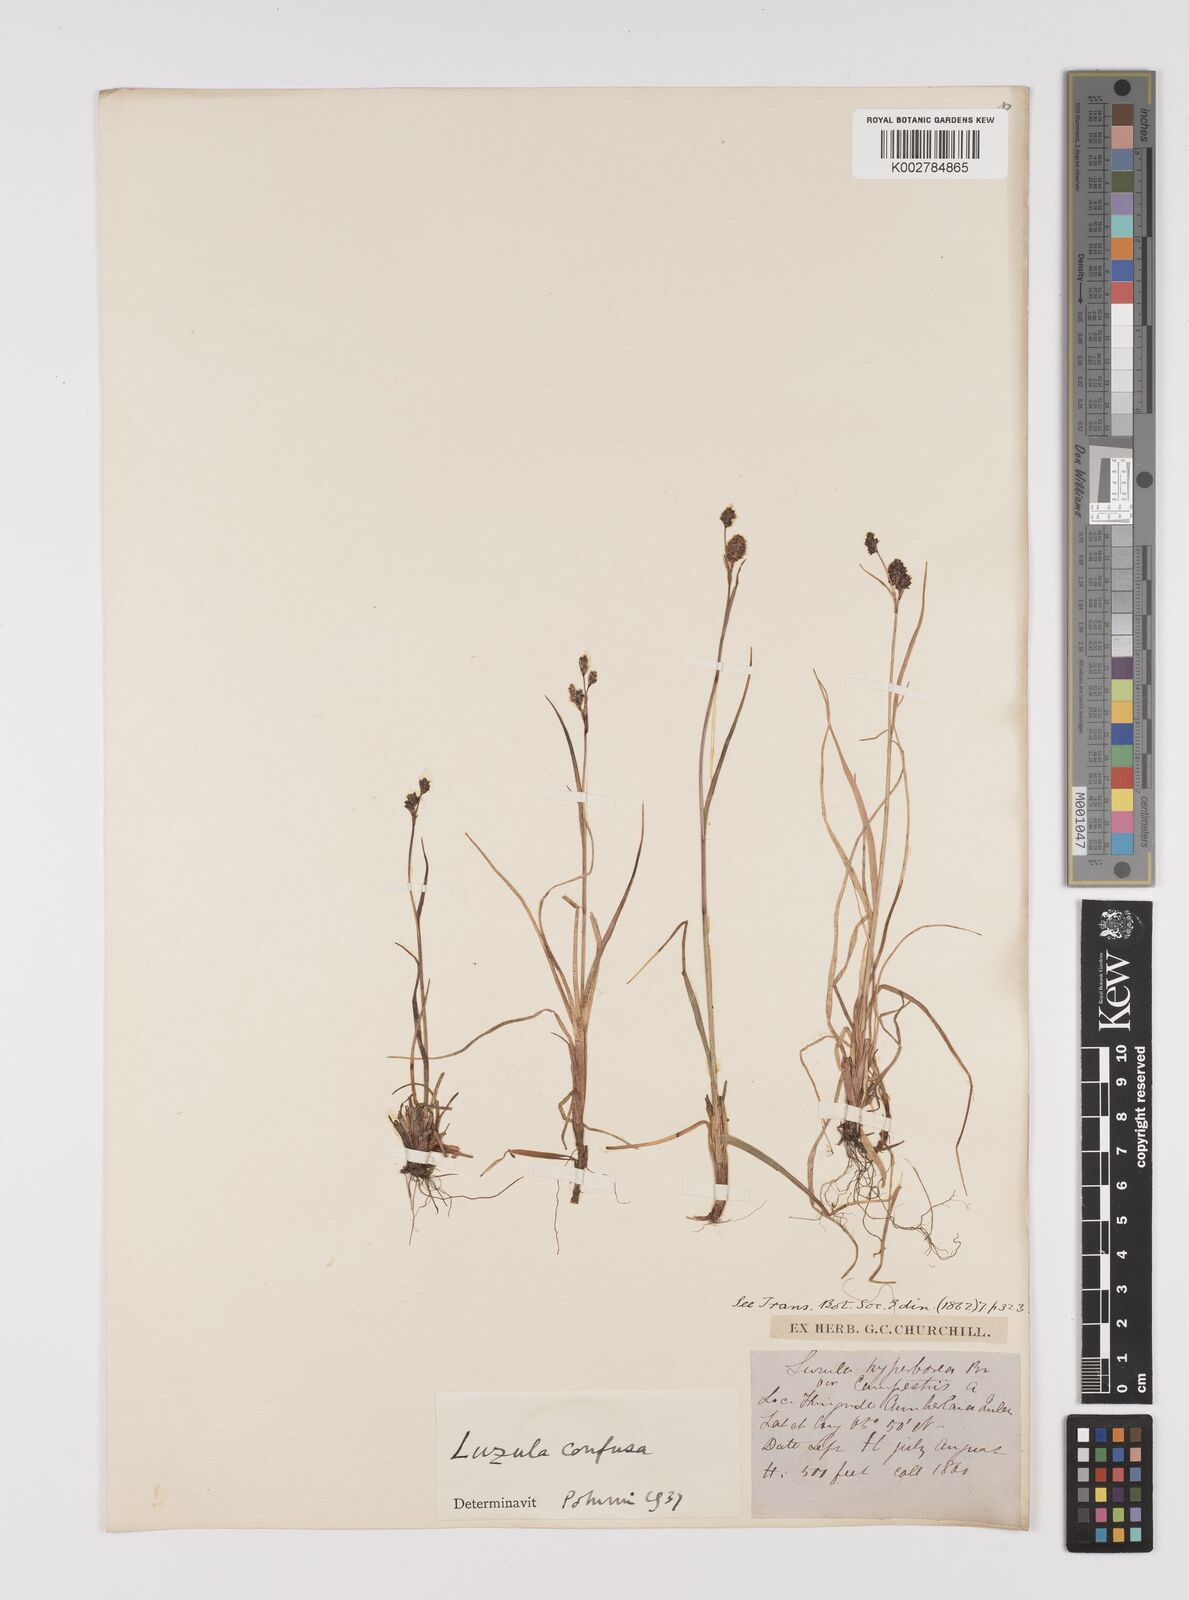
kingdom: Plantae
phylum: Tracheophyta
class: Liliopsida
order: Poales
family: Juncaceae
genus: Luzula
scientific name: Luzula confusa
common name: Northern wood rush
